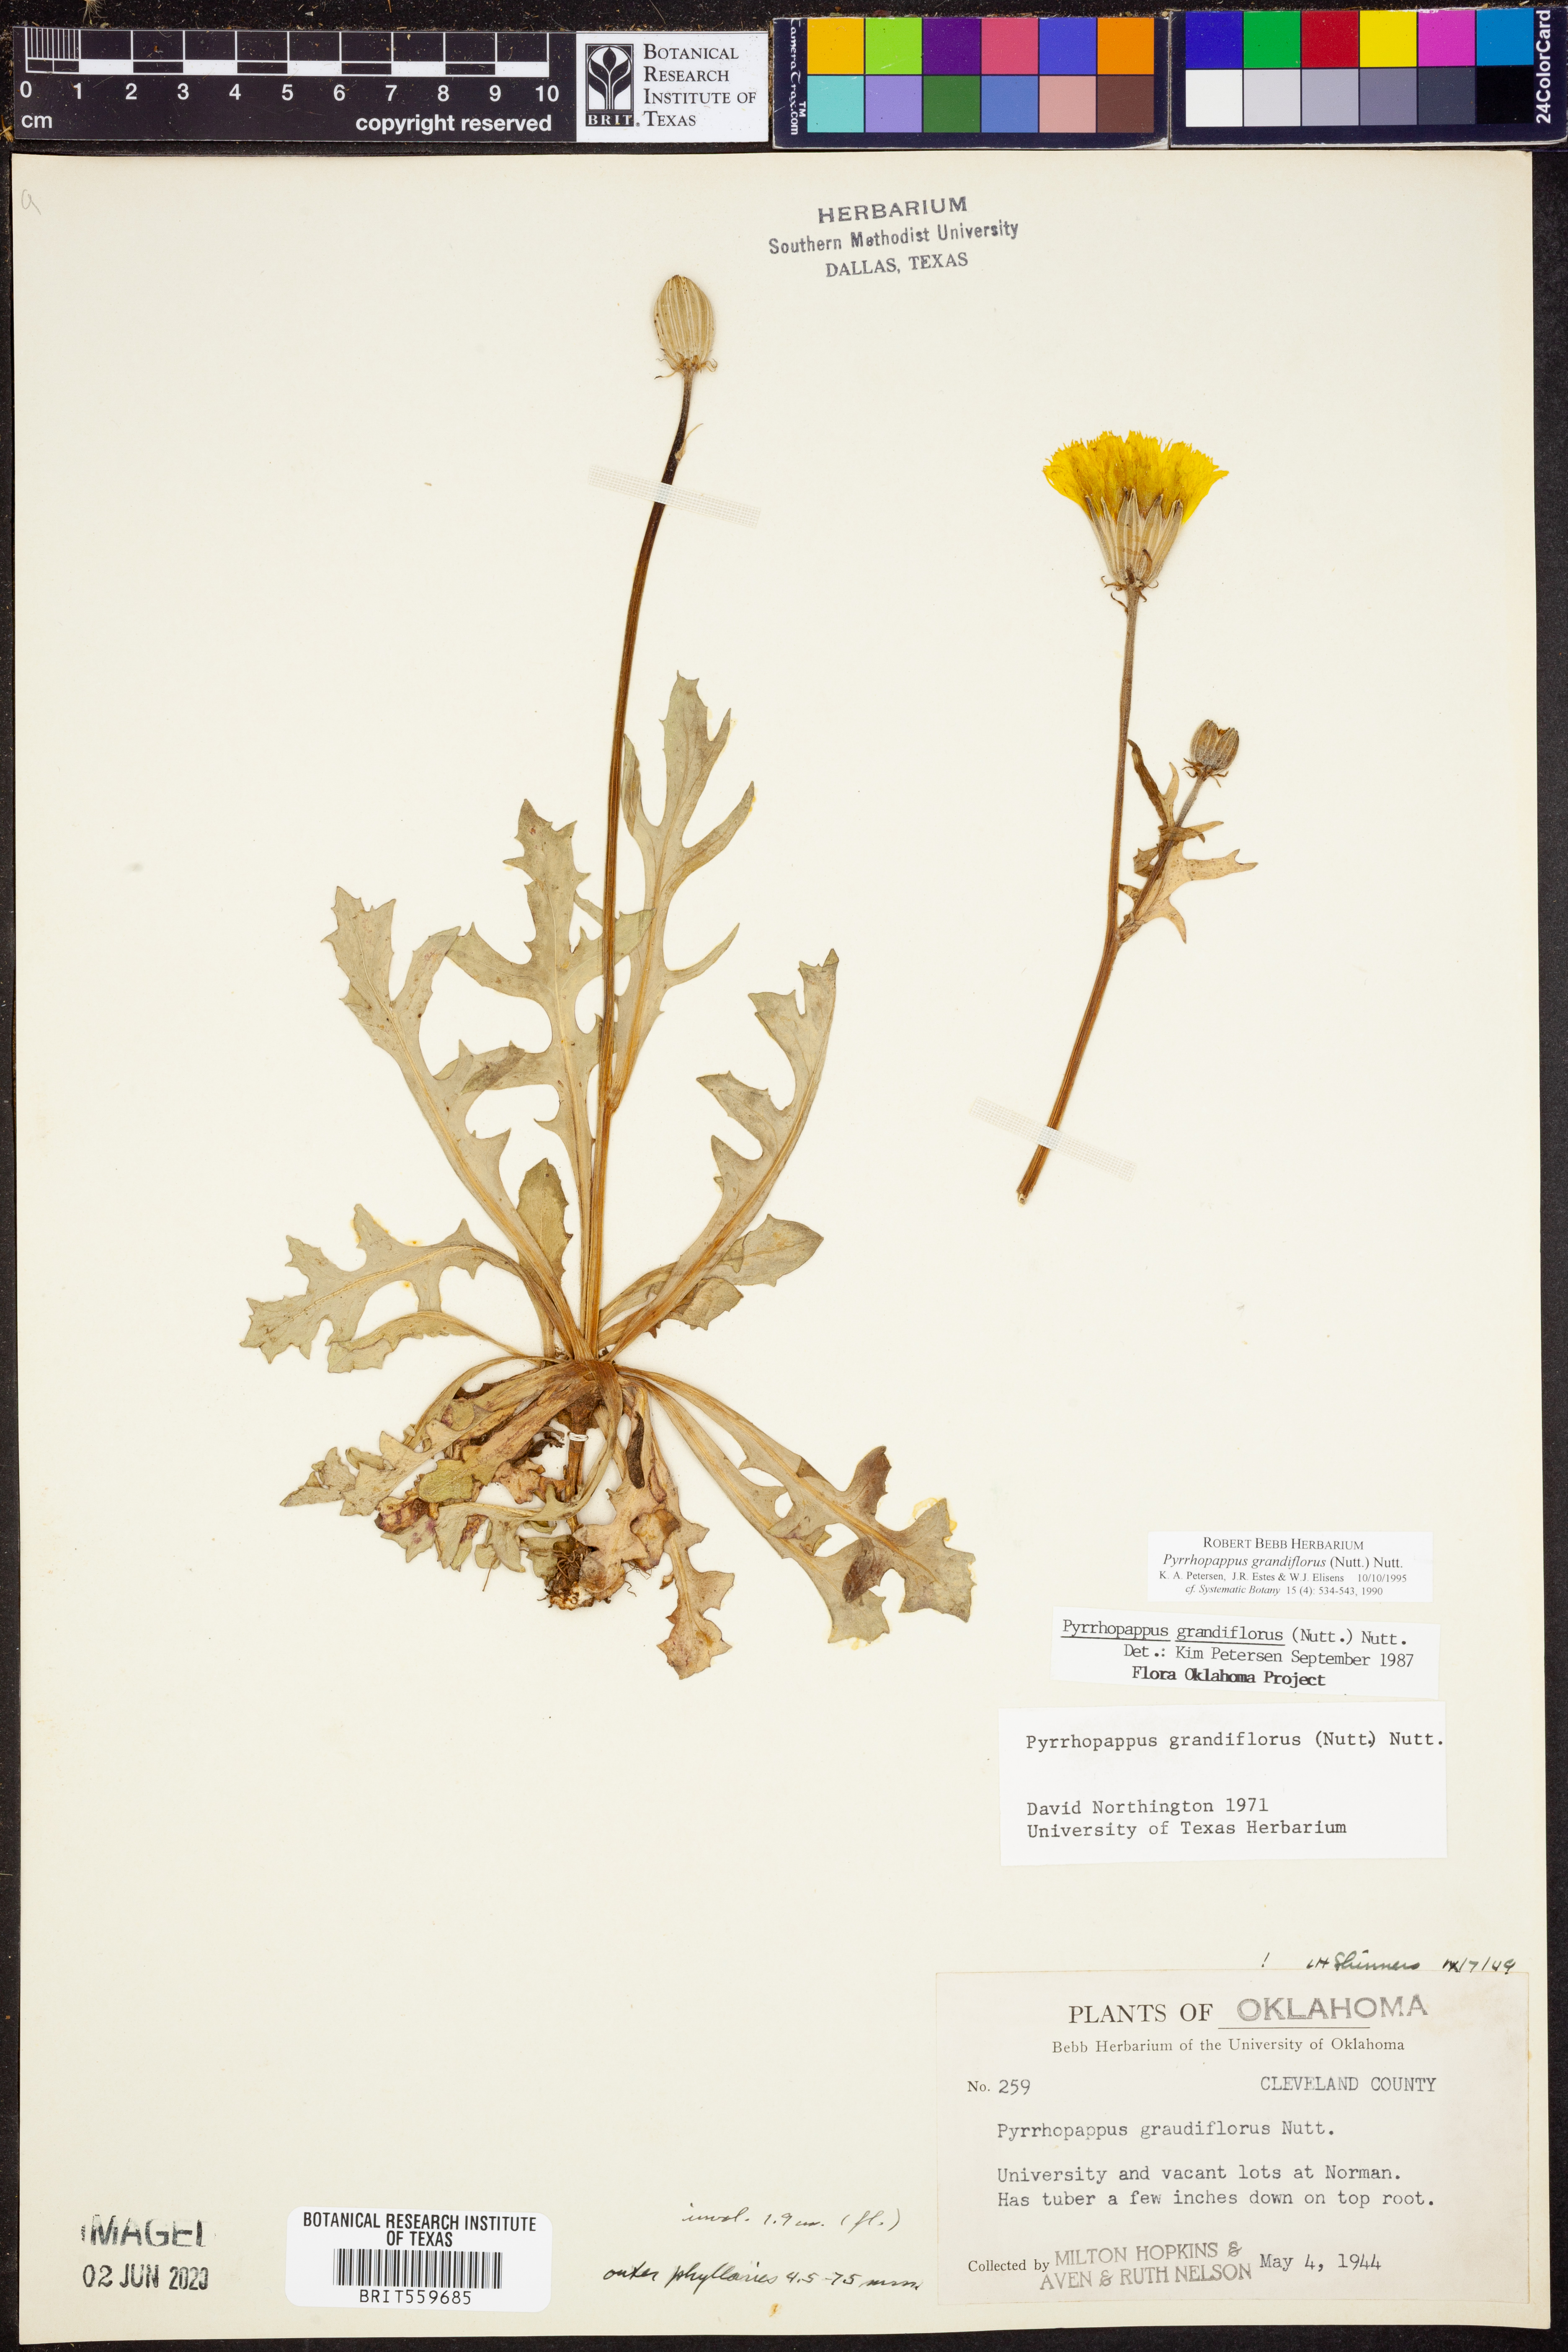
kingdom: Plantae
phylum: Tracheophyta
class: Magnoliopsida
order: Asterales
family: Asteraceae
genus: Pyrrhopappus
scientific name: Pyrrhopappus grandiflorus
